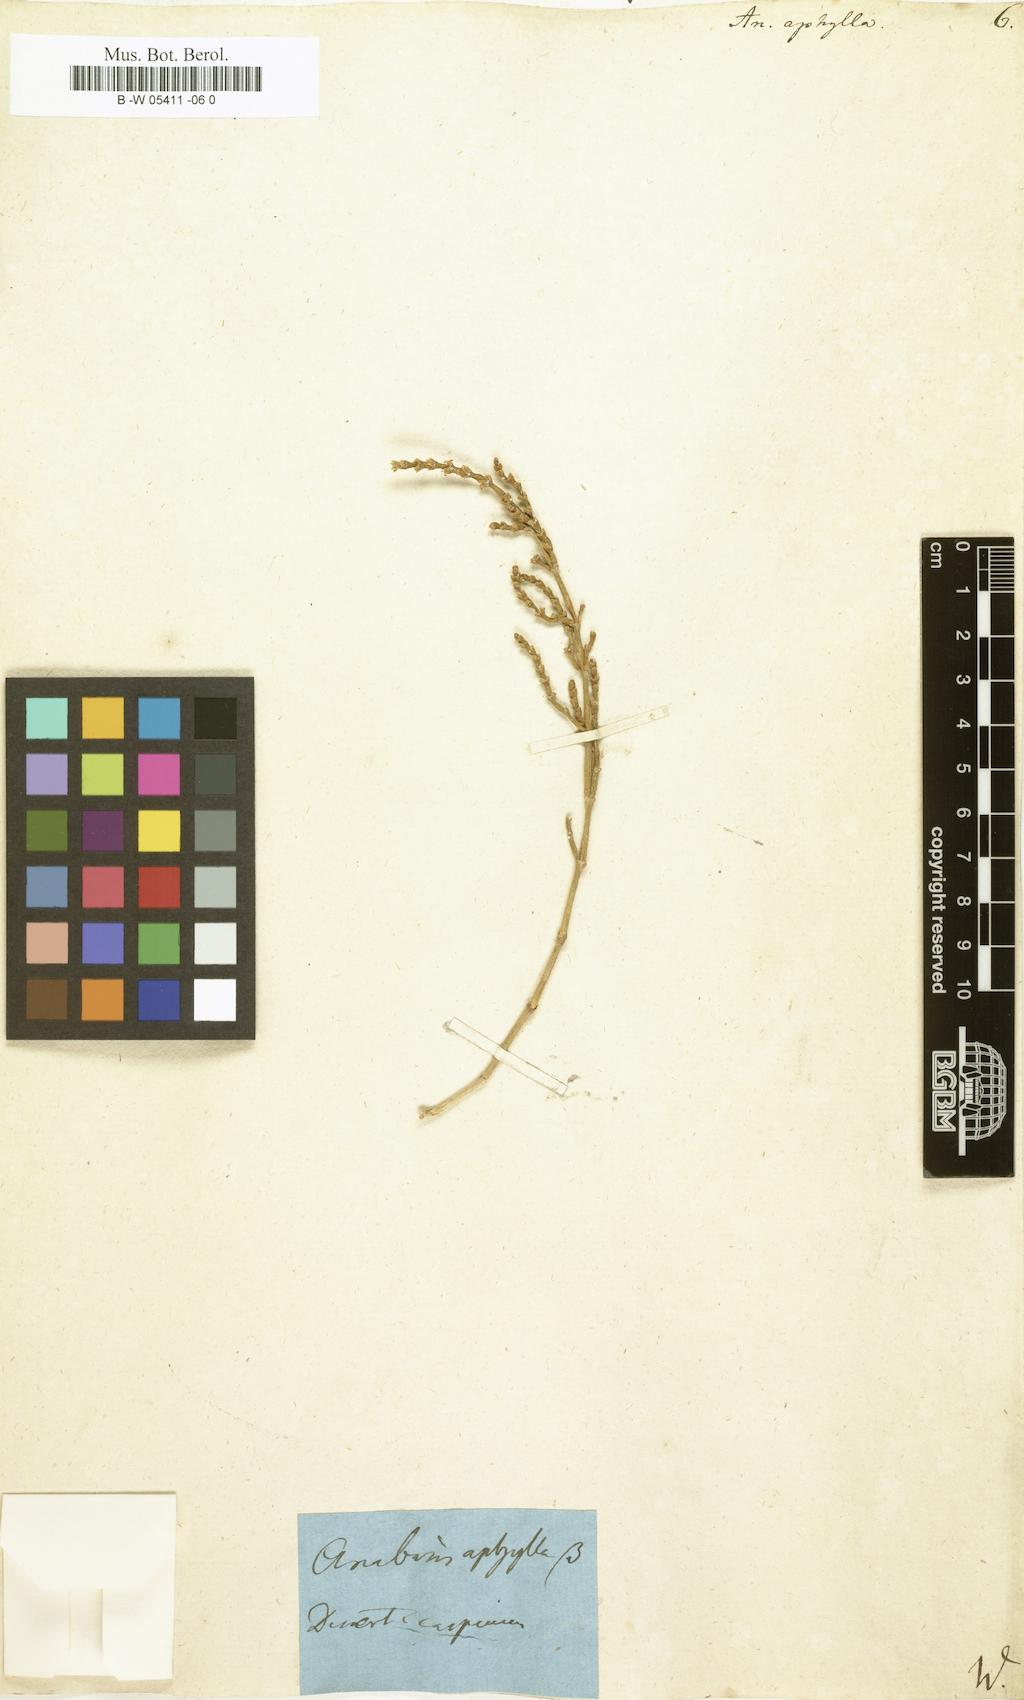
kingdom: Plantae
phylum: Tracheophyta
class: Magnoliopsida
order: Caryophyllales
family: Amaranthaceae
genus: Anabasis
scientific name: Anabasis aphylla
